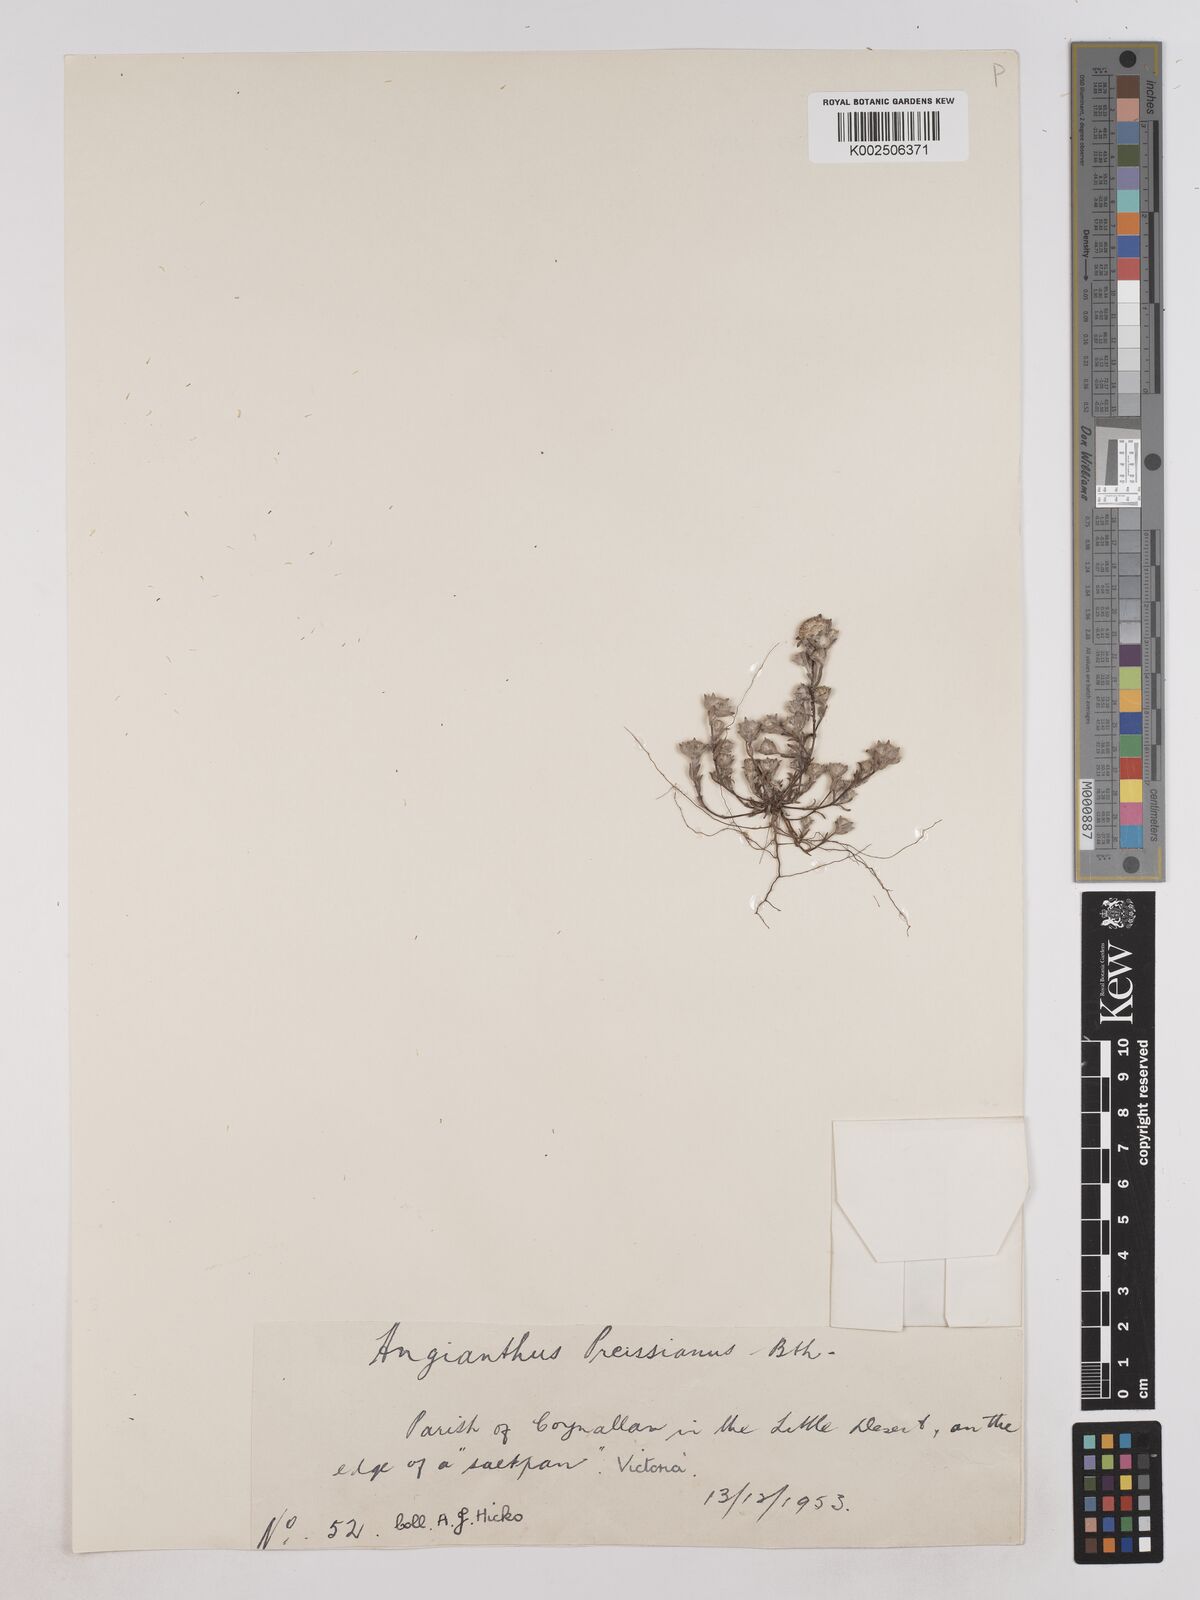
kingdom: Plantae
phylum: Tracheophyta
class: Magnoliopsida
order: Asterales
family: Asteraceae
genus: Angianthus
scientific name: Angianthus preissianus
